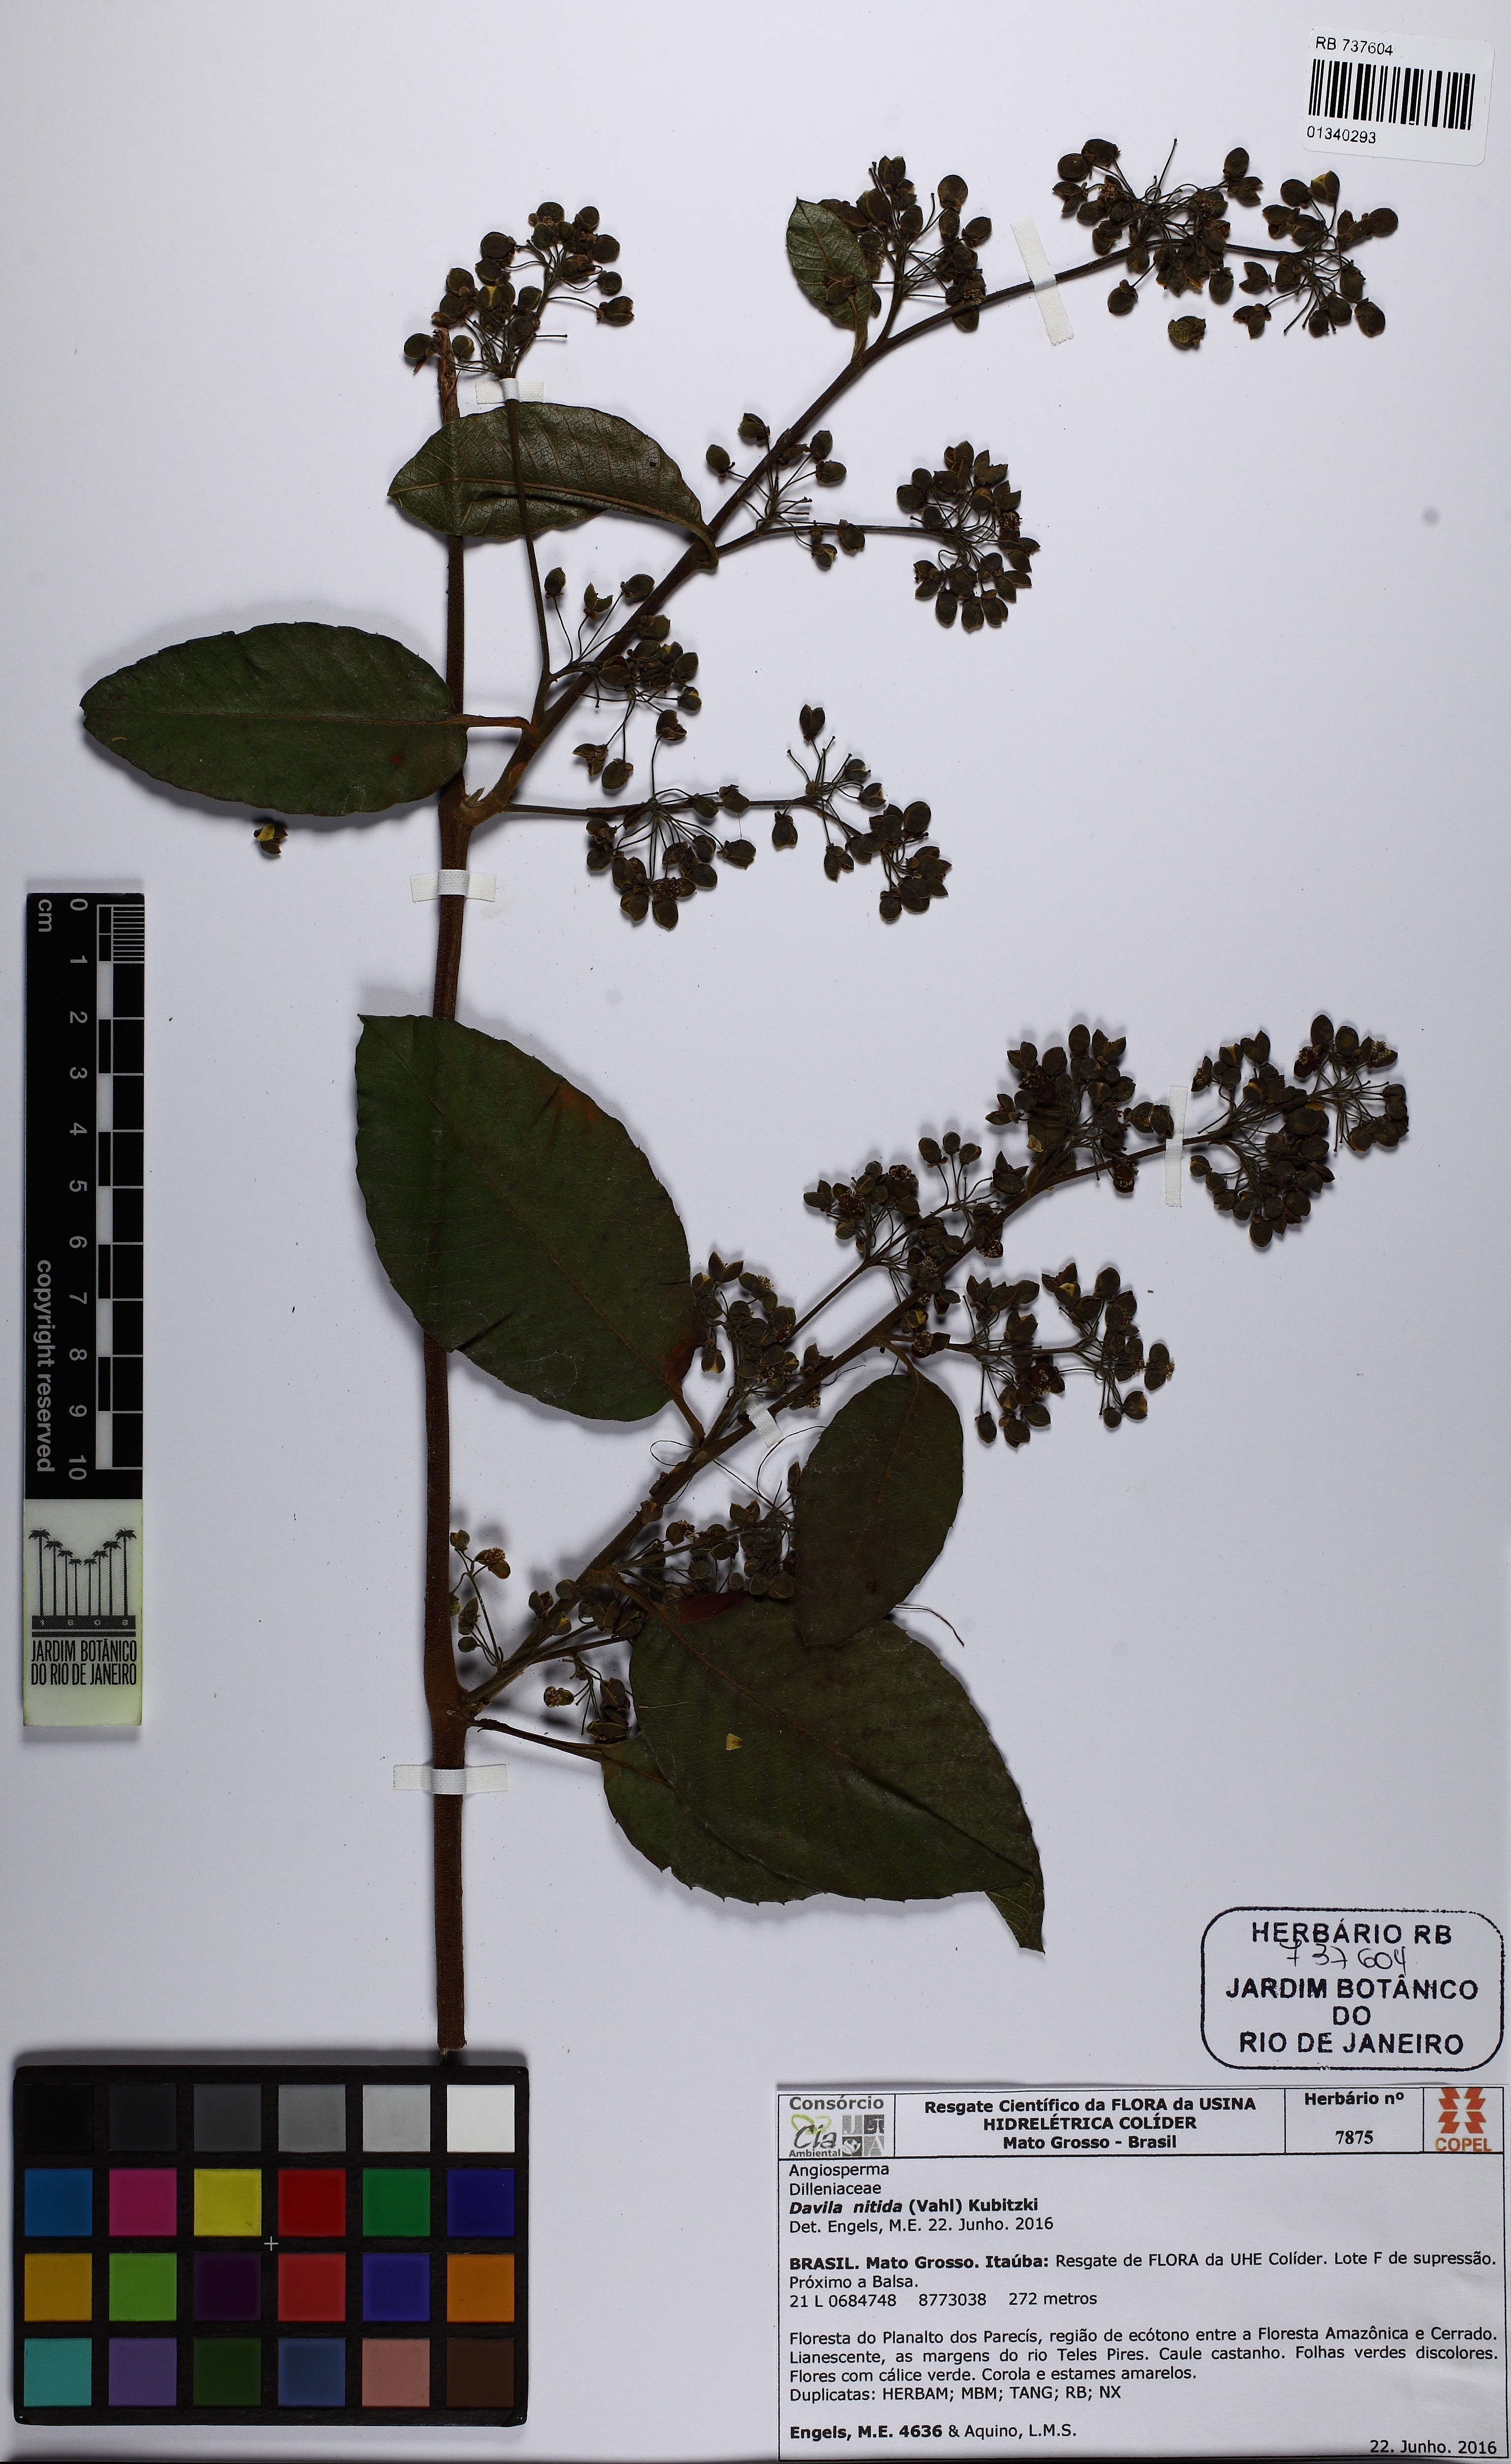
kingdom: Plantae
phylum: Tracheophyta
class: Magnoliopsida
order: Dilleniales
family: Dilleniaceae
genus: Davilla
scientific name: Davilla nitida
